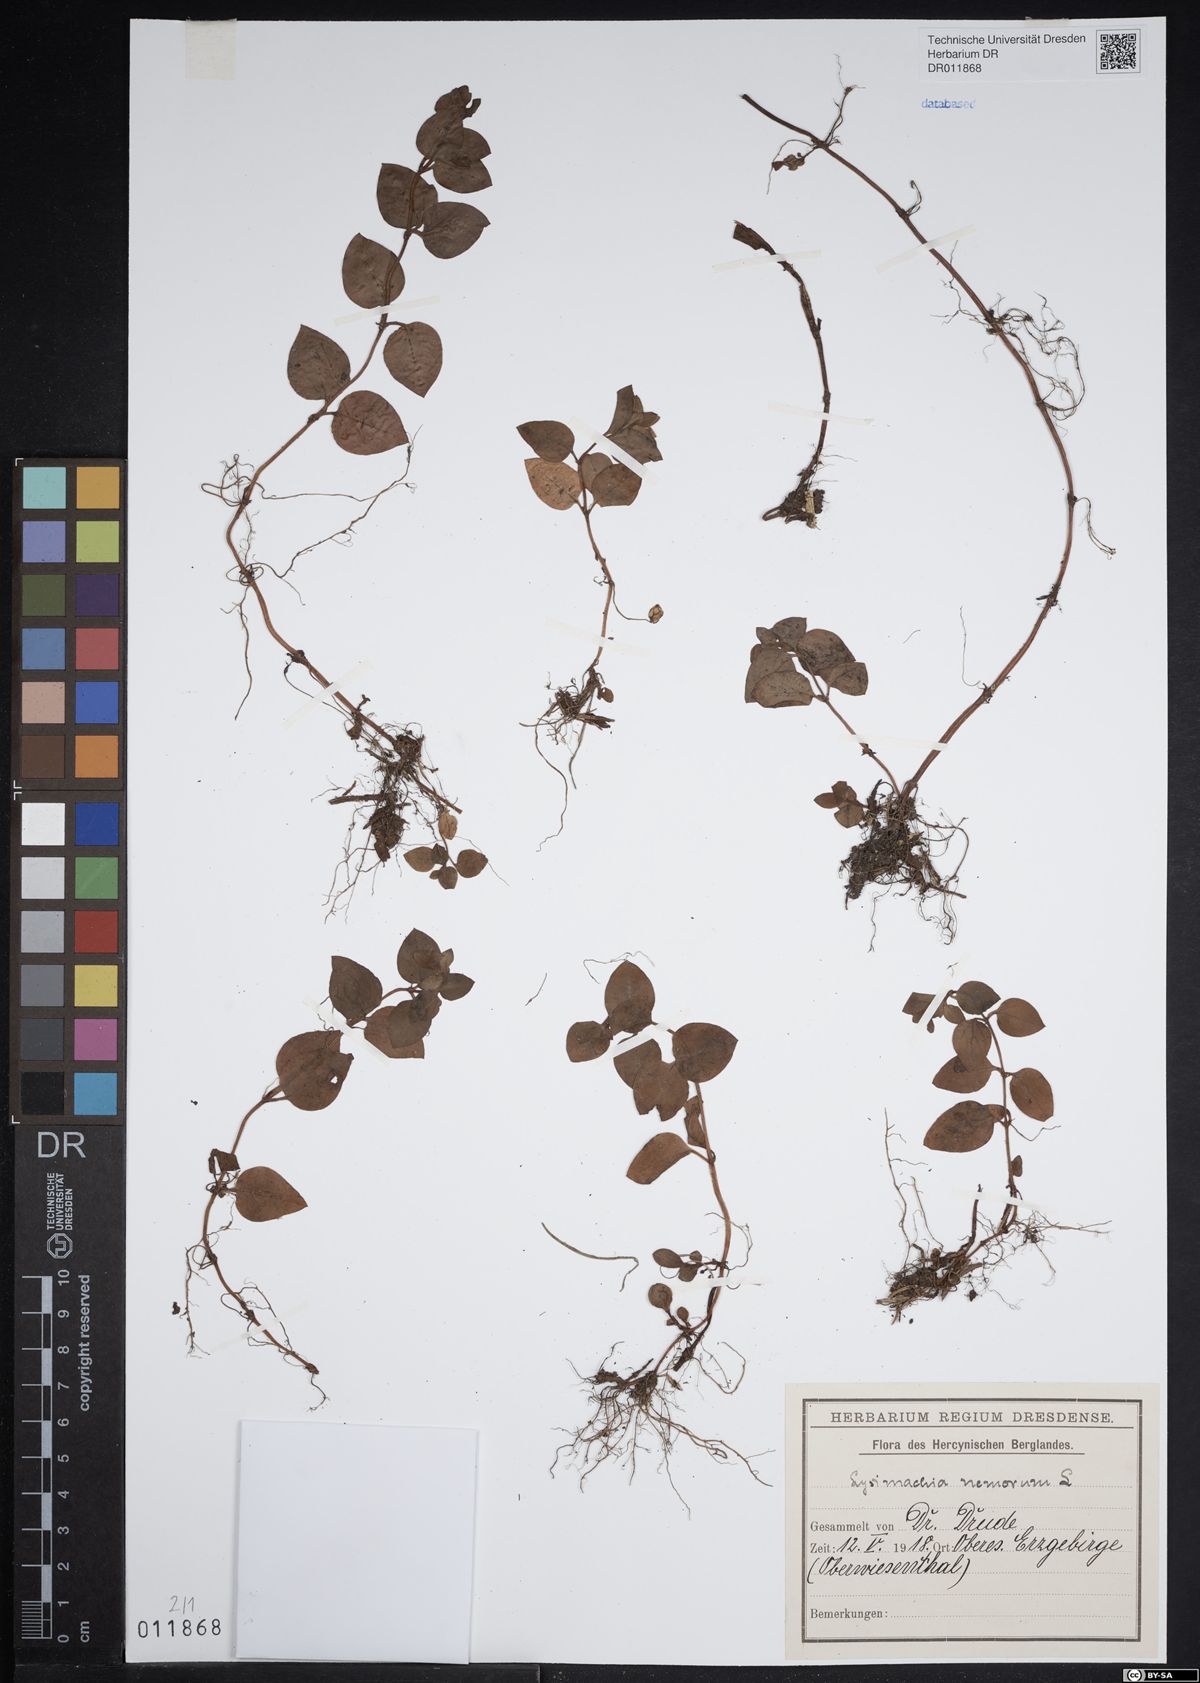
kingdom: Plantae
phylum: Tracheophyta
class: Magnoliopsida
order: Ericales
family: Primulaceae
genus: Lysimachia
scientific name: Lysimachia nemorum
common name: Yellow pimpernel
